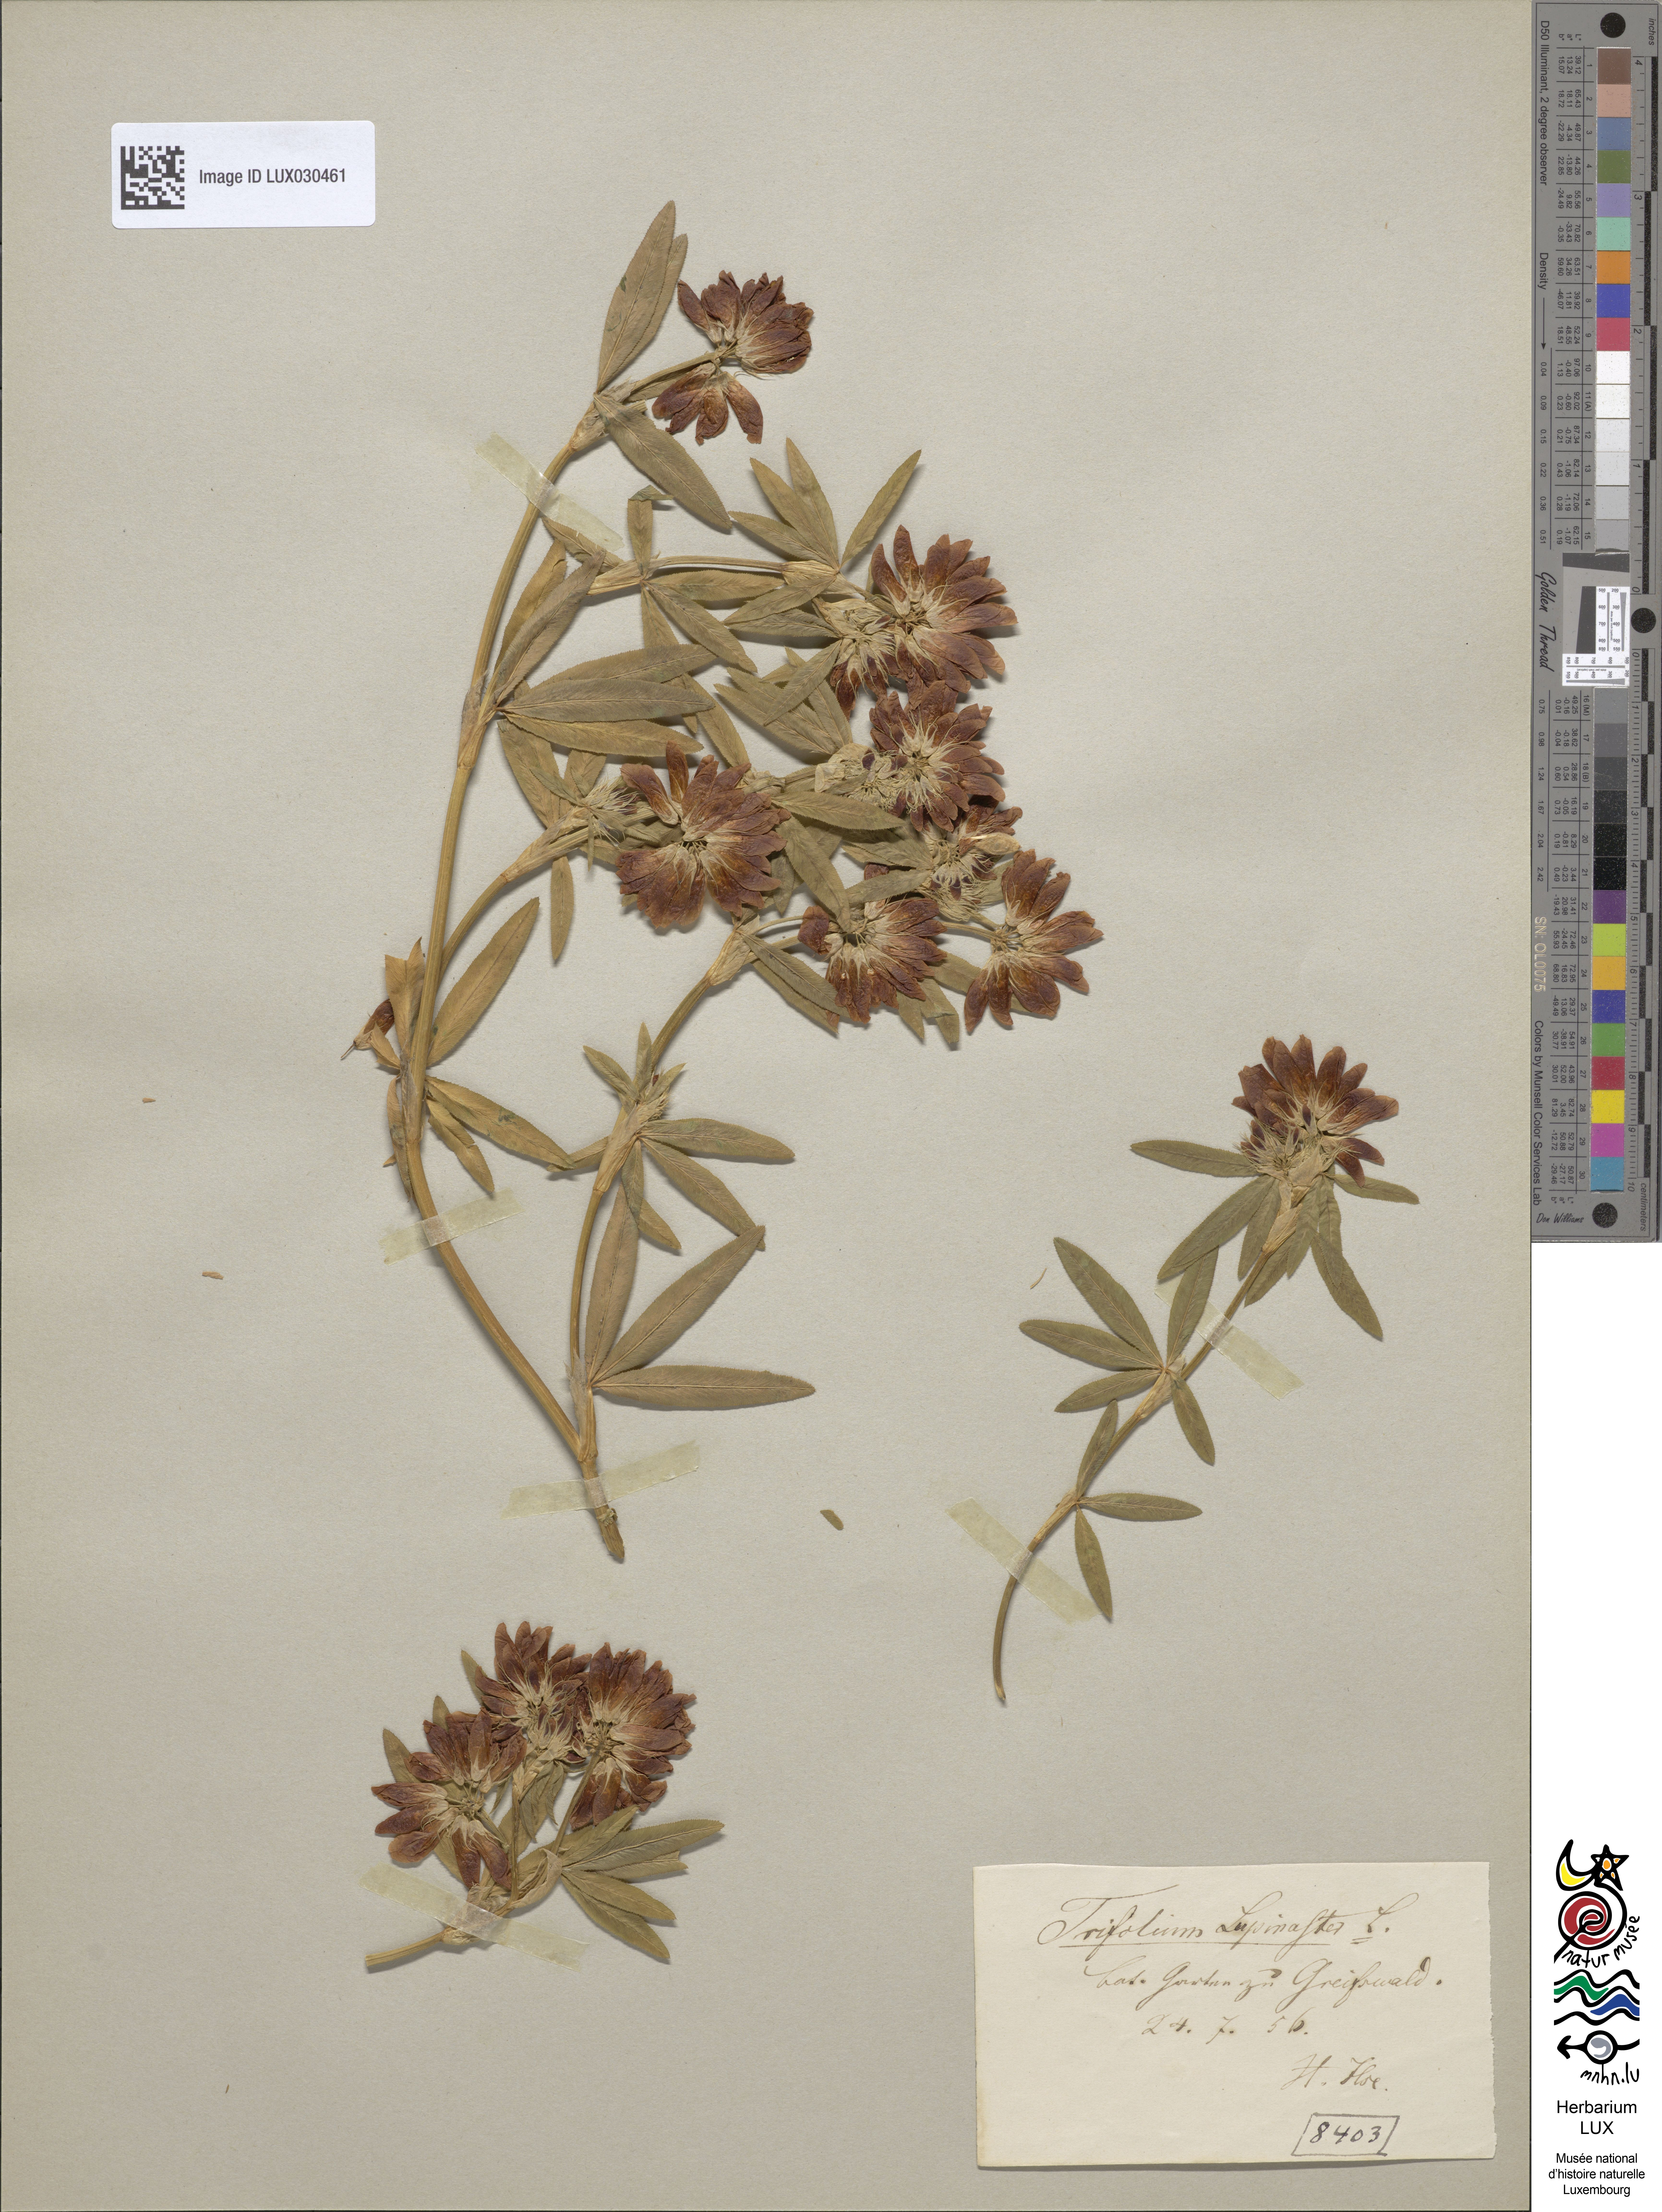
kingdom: Plantae
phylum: Tracheophyta
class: Magnoliopsida
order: Fabales
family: Fabaceae
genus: Trifolium
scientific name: Trifolium lupinaster
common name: Lupine clover
